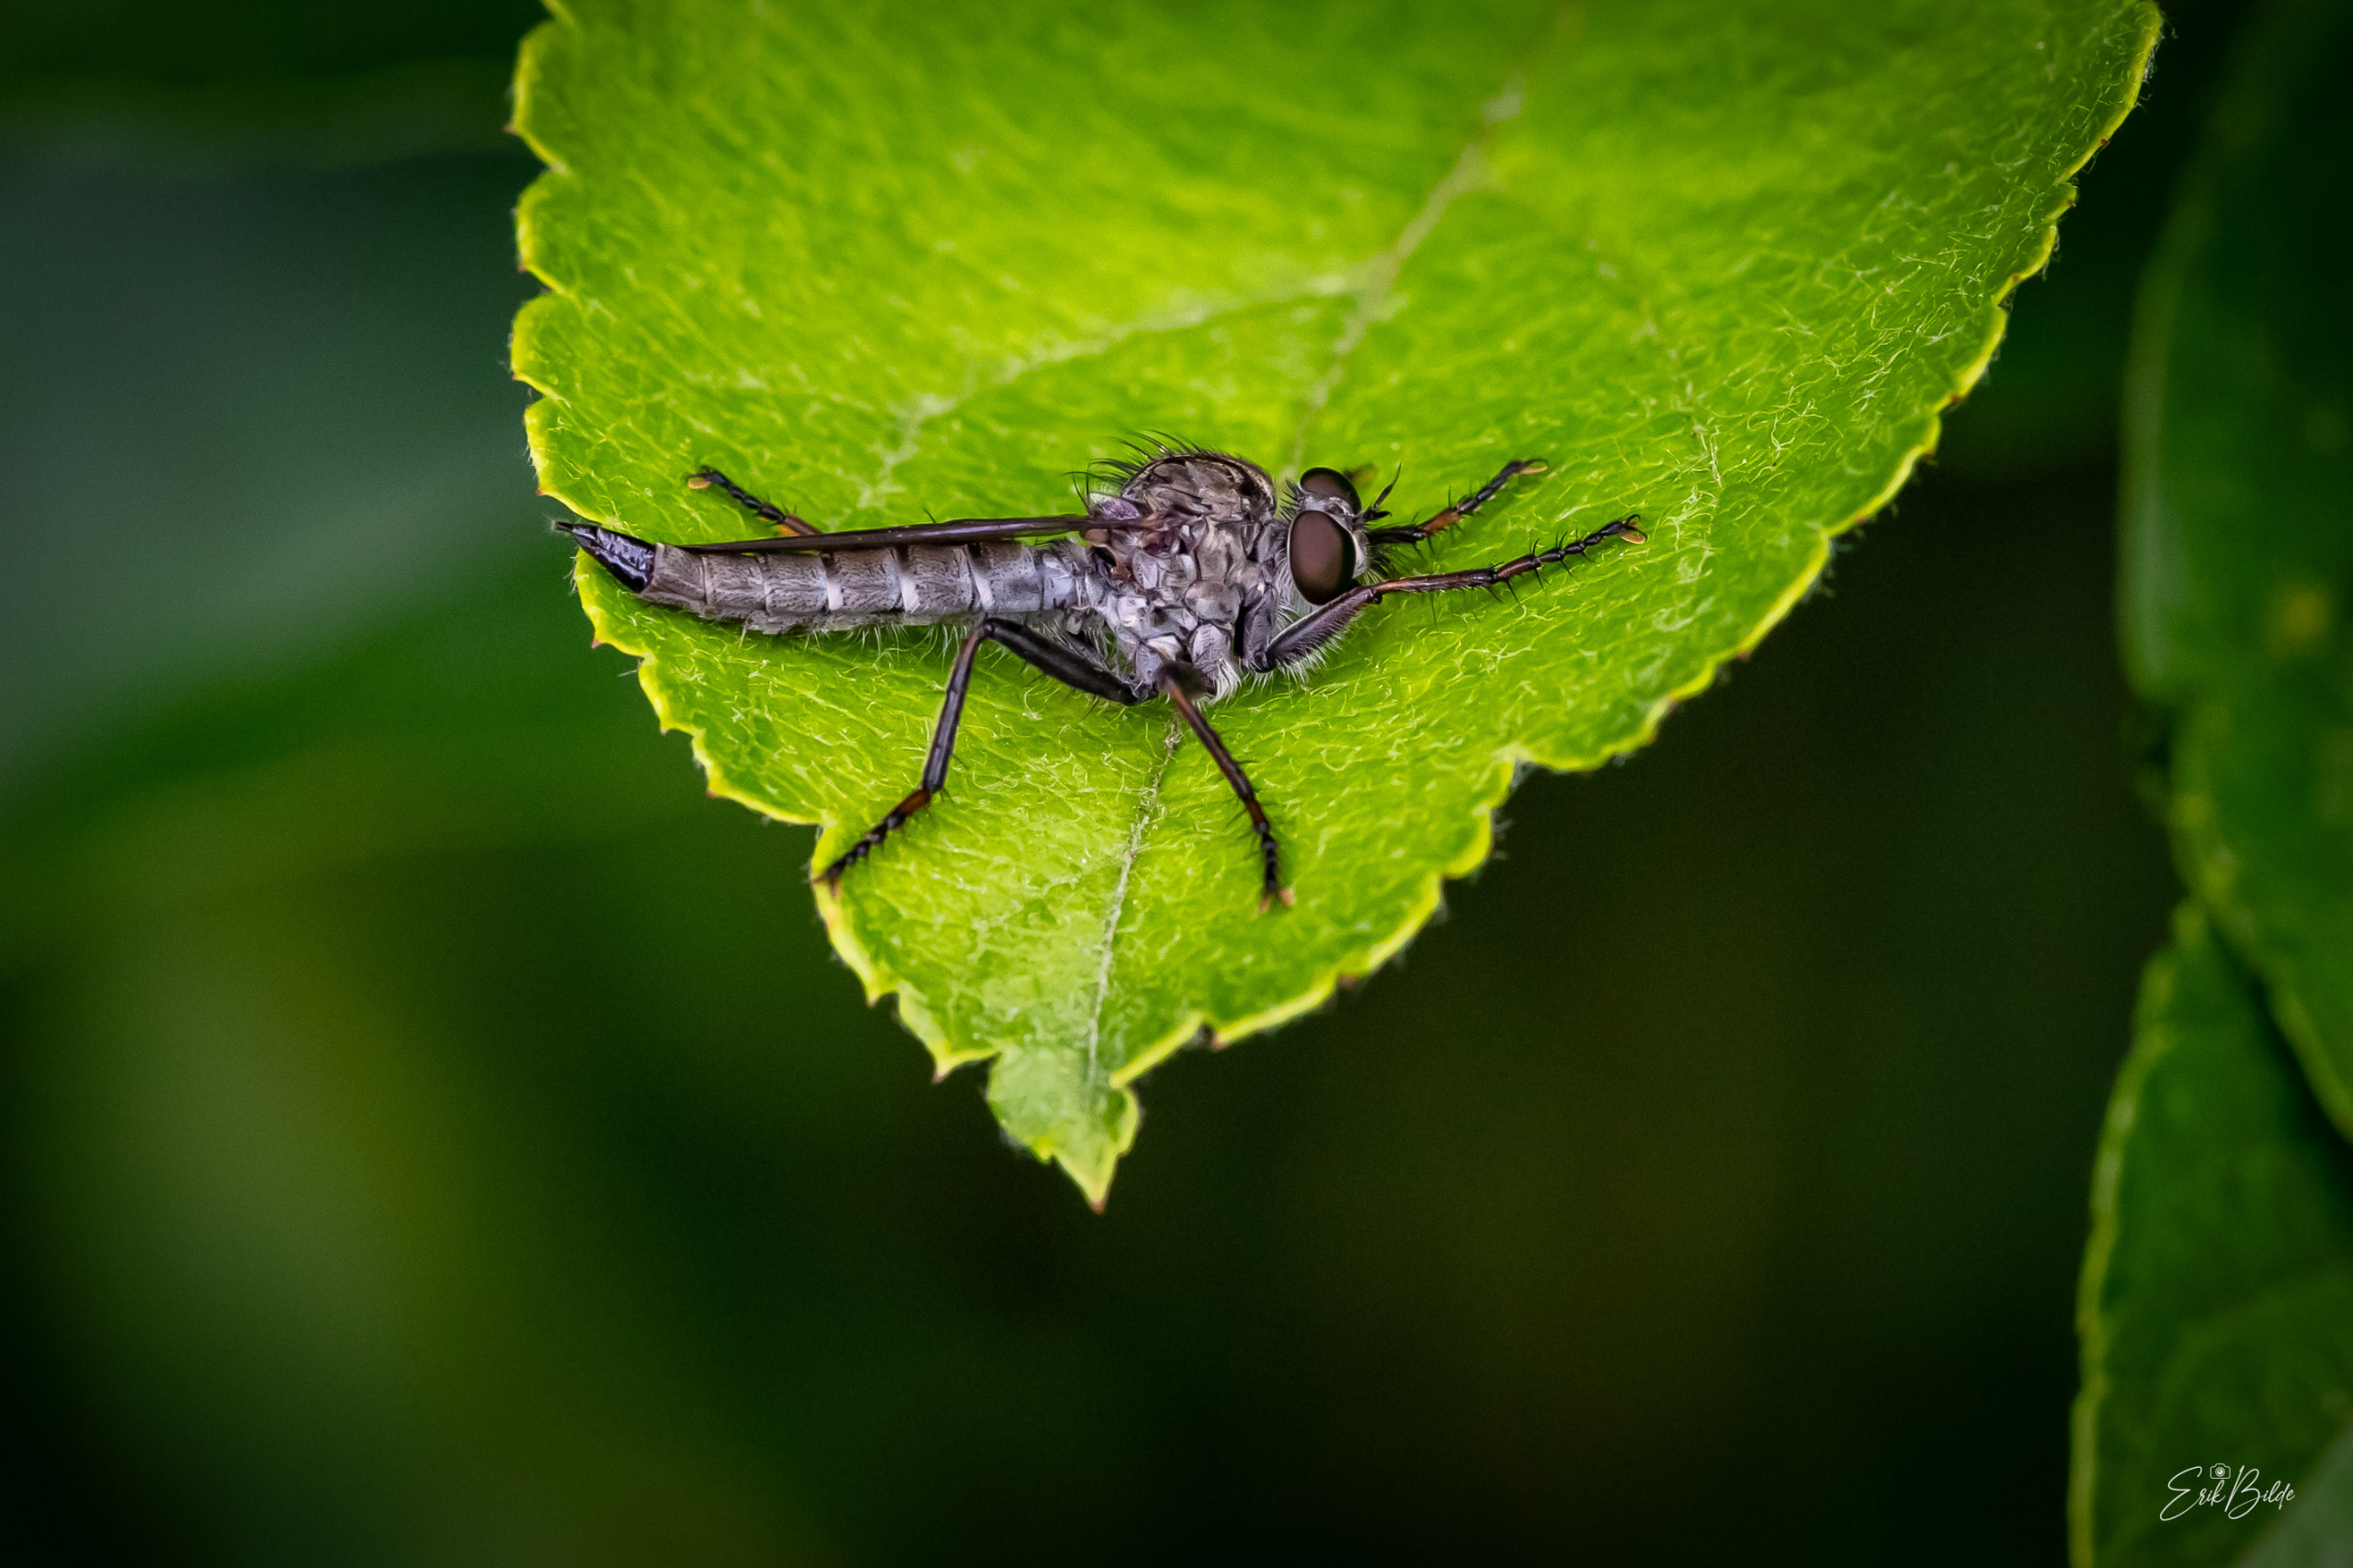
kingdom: Animalia
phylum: Arthropoda
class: Insecta
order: Diptera
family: Asilidae
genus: Machimus
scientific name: Machimus atricapillus
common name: Sort hårrovflue
